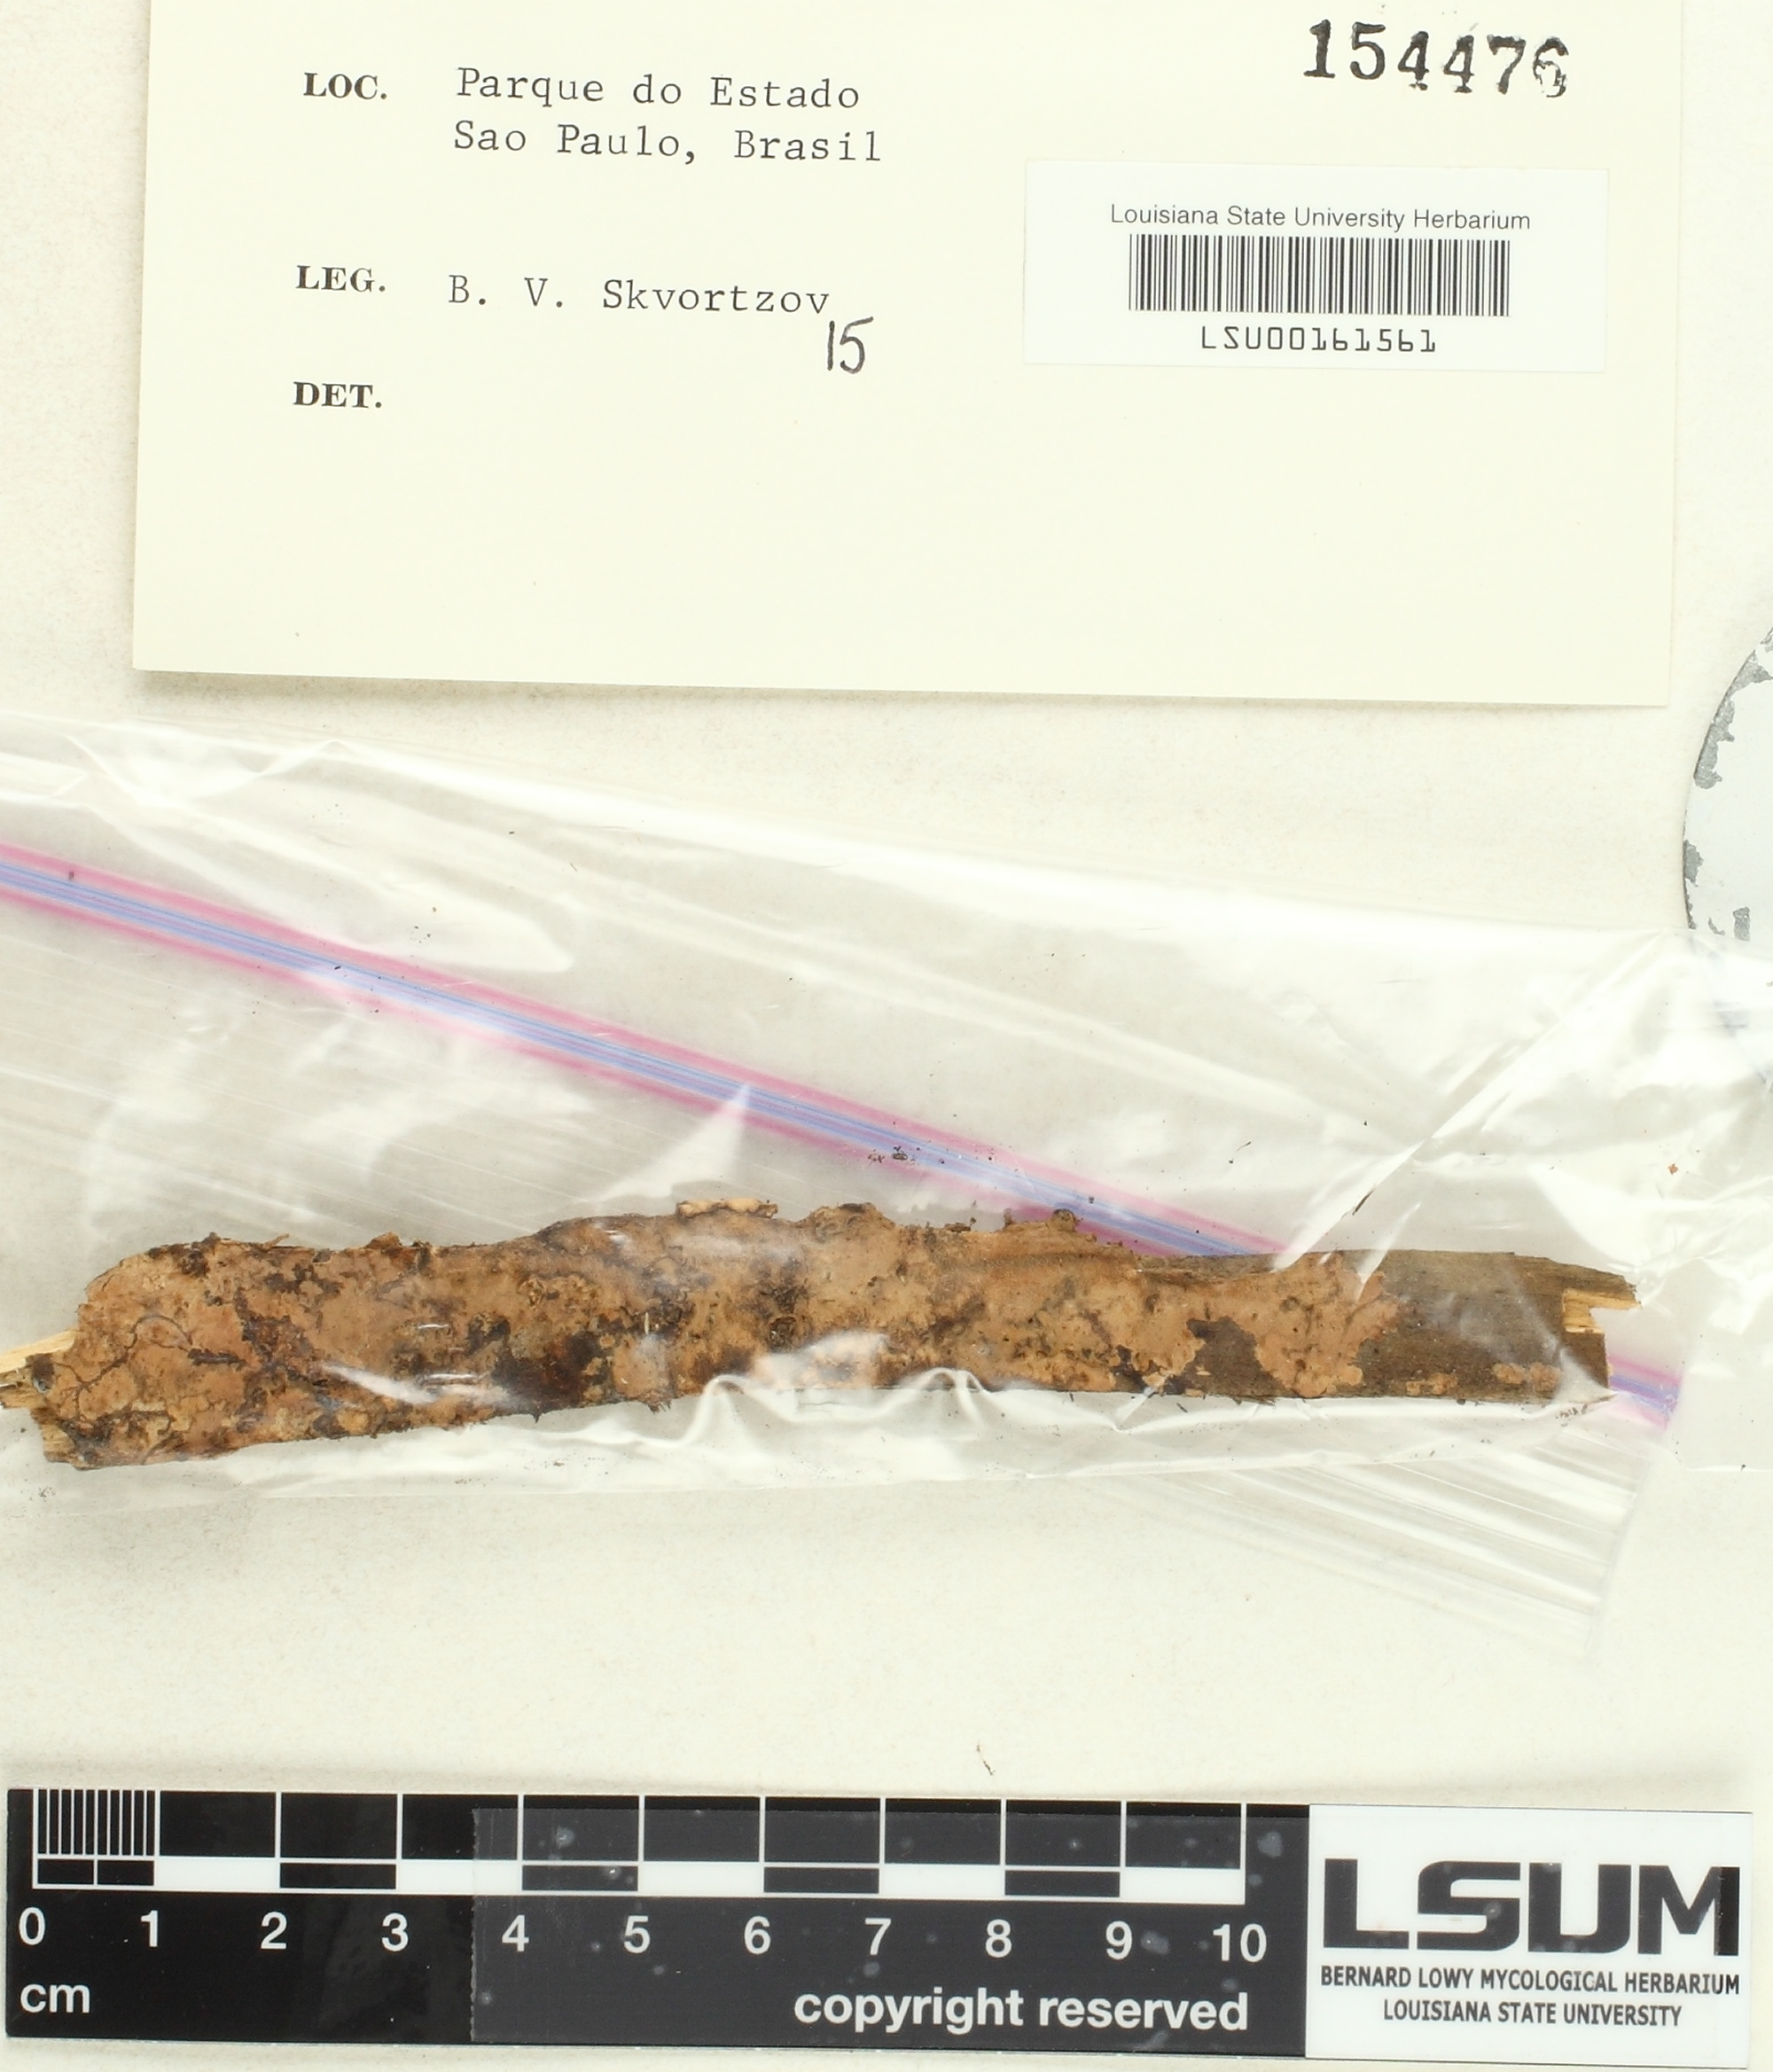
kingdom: Fungi
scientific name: Fungi
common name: Fungi
